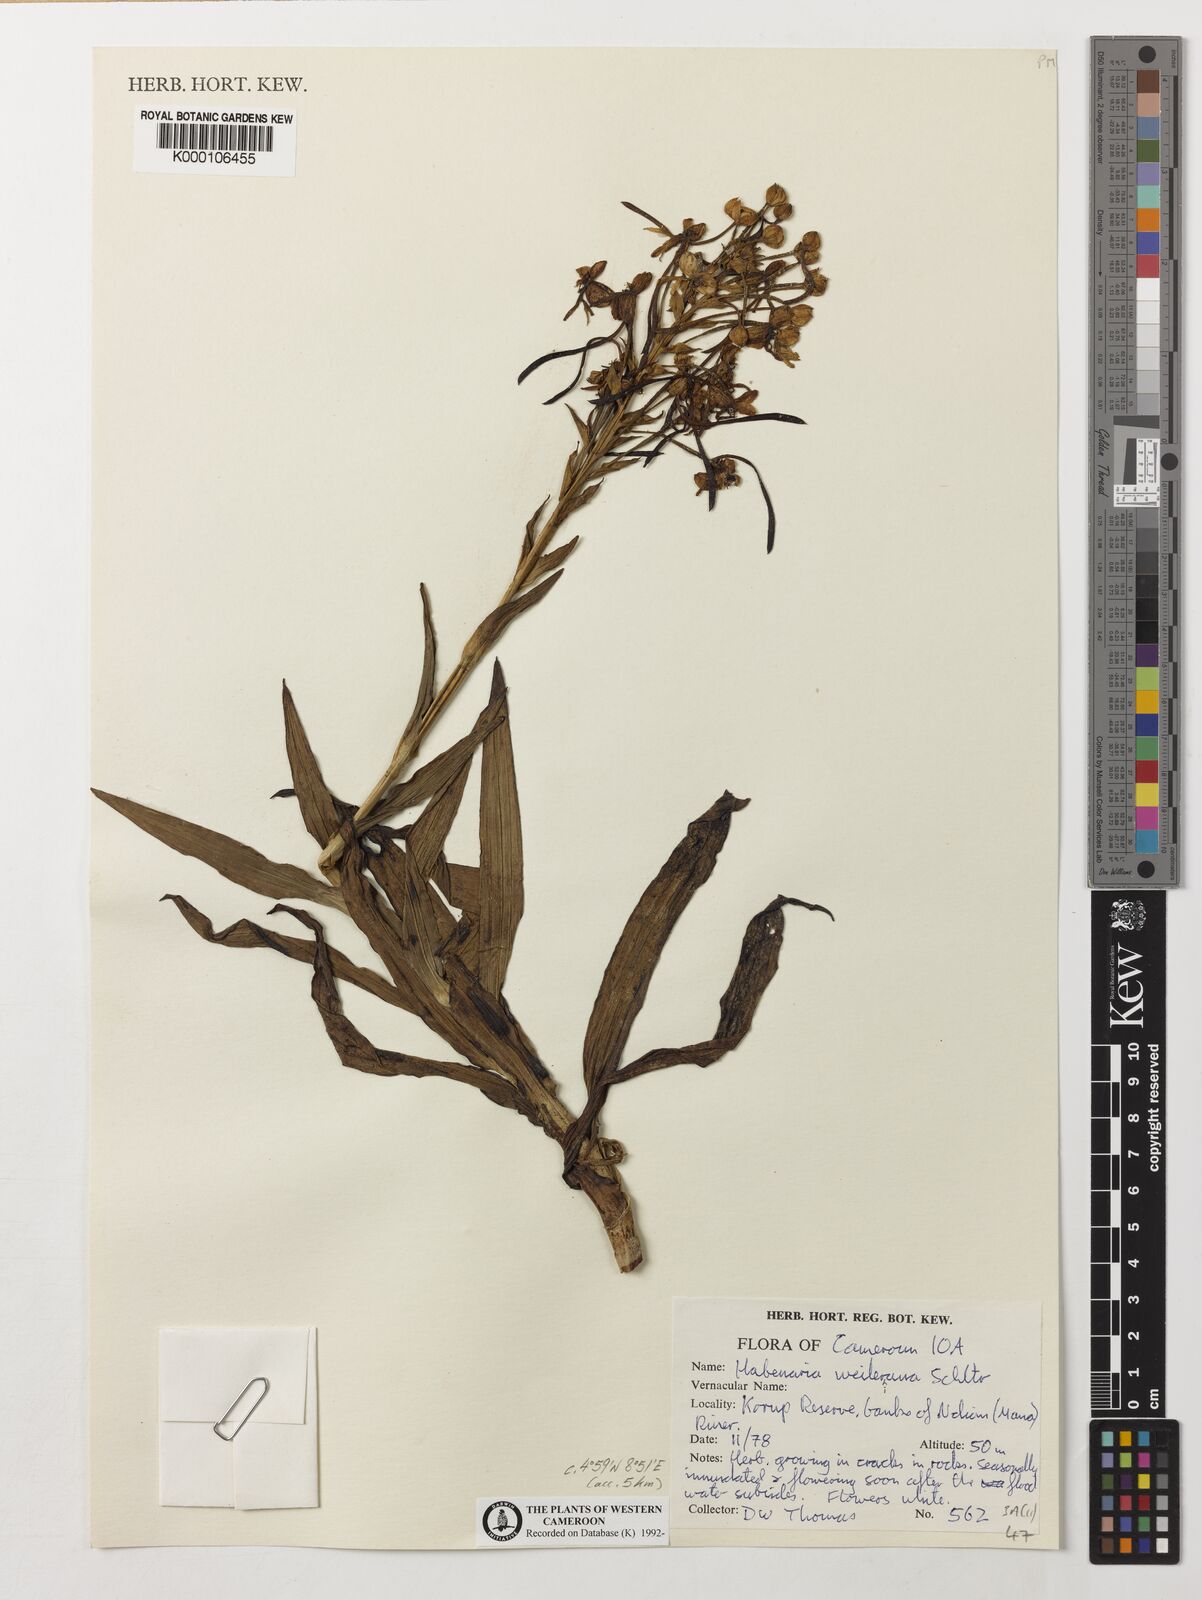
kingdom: Plantae
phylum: Tracheophyta
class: Liliopsida
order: Asparagales
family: Orchidaceae
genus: Habenaria
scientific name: Habenaria weileriana
